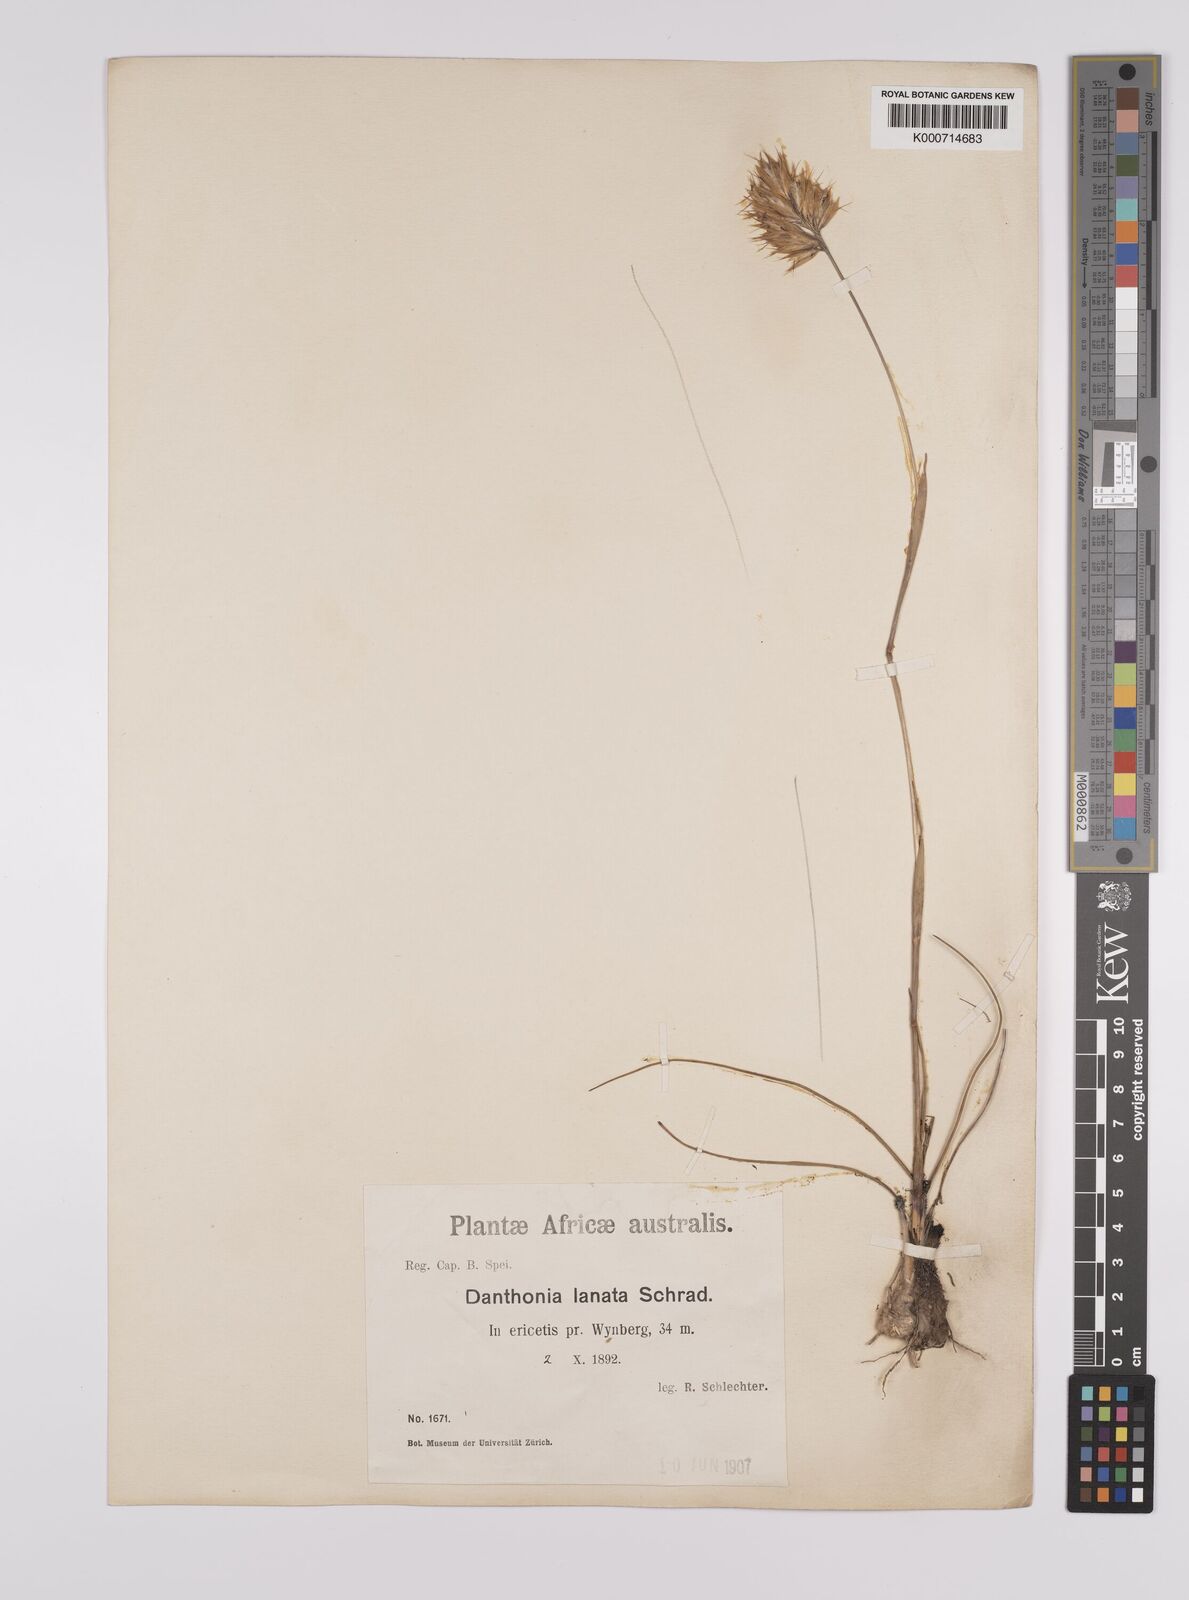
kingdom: Plantae
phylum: Tracheophyta
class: Liliopsida
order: Poales
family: Poaceae
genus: Rytidosperma
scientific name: Rytidosperma
